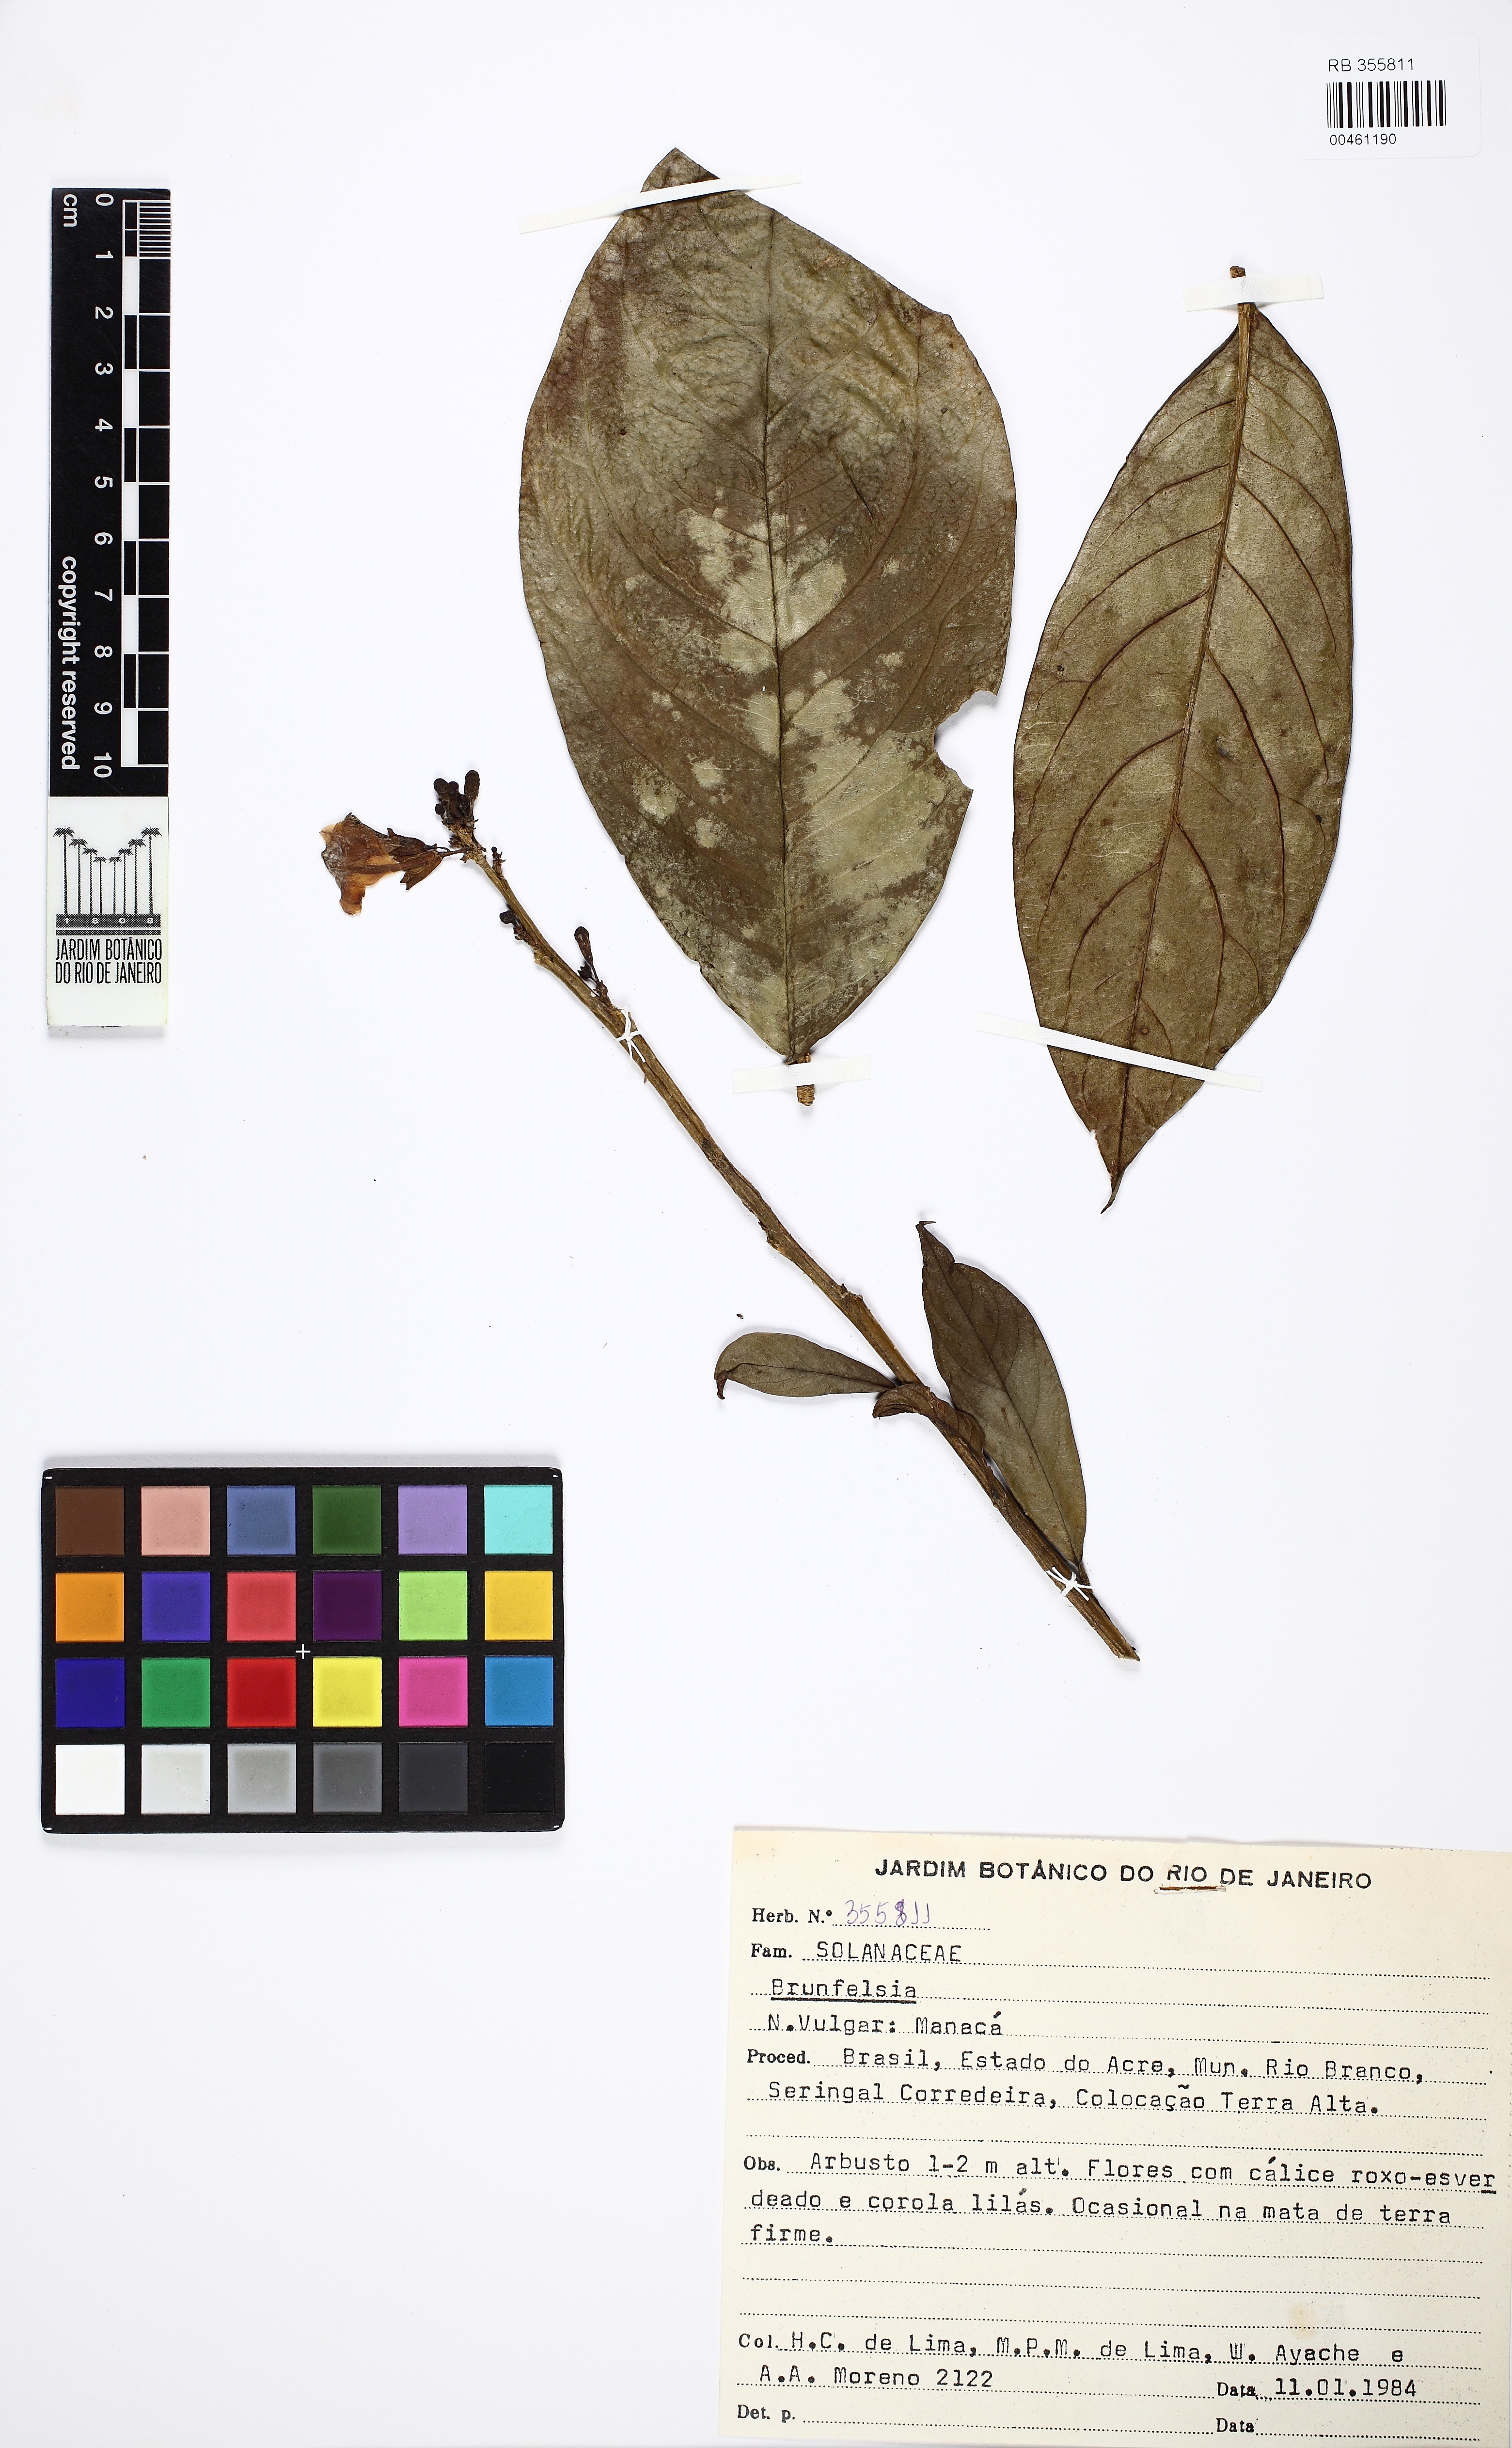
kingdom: Plantae
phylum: Tracheophyta
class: Magnoliopsida
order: Solanales
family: Solanaceae
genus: Brunfelsia
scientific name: Brunfelsia
